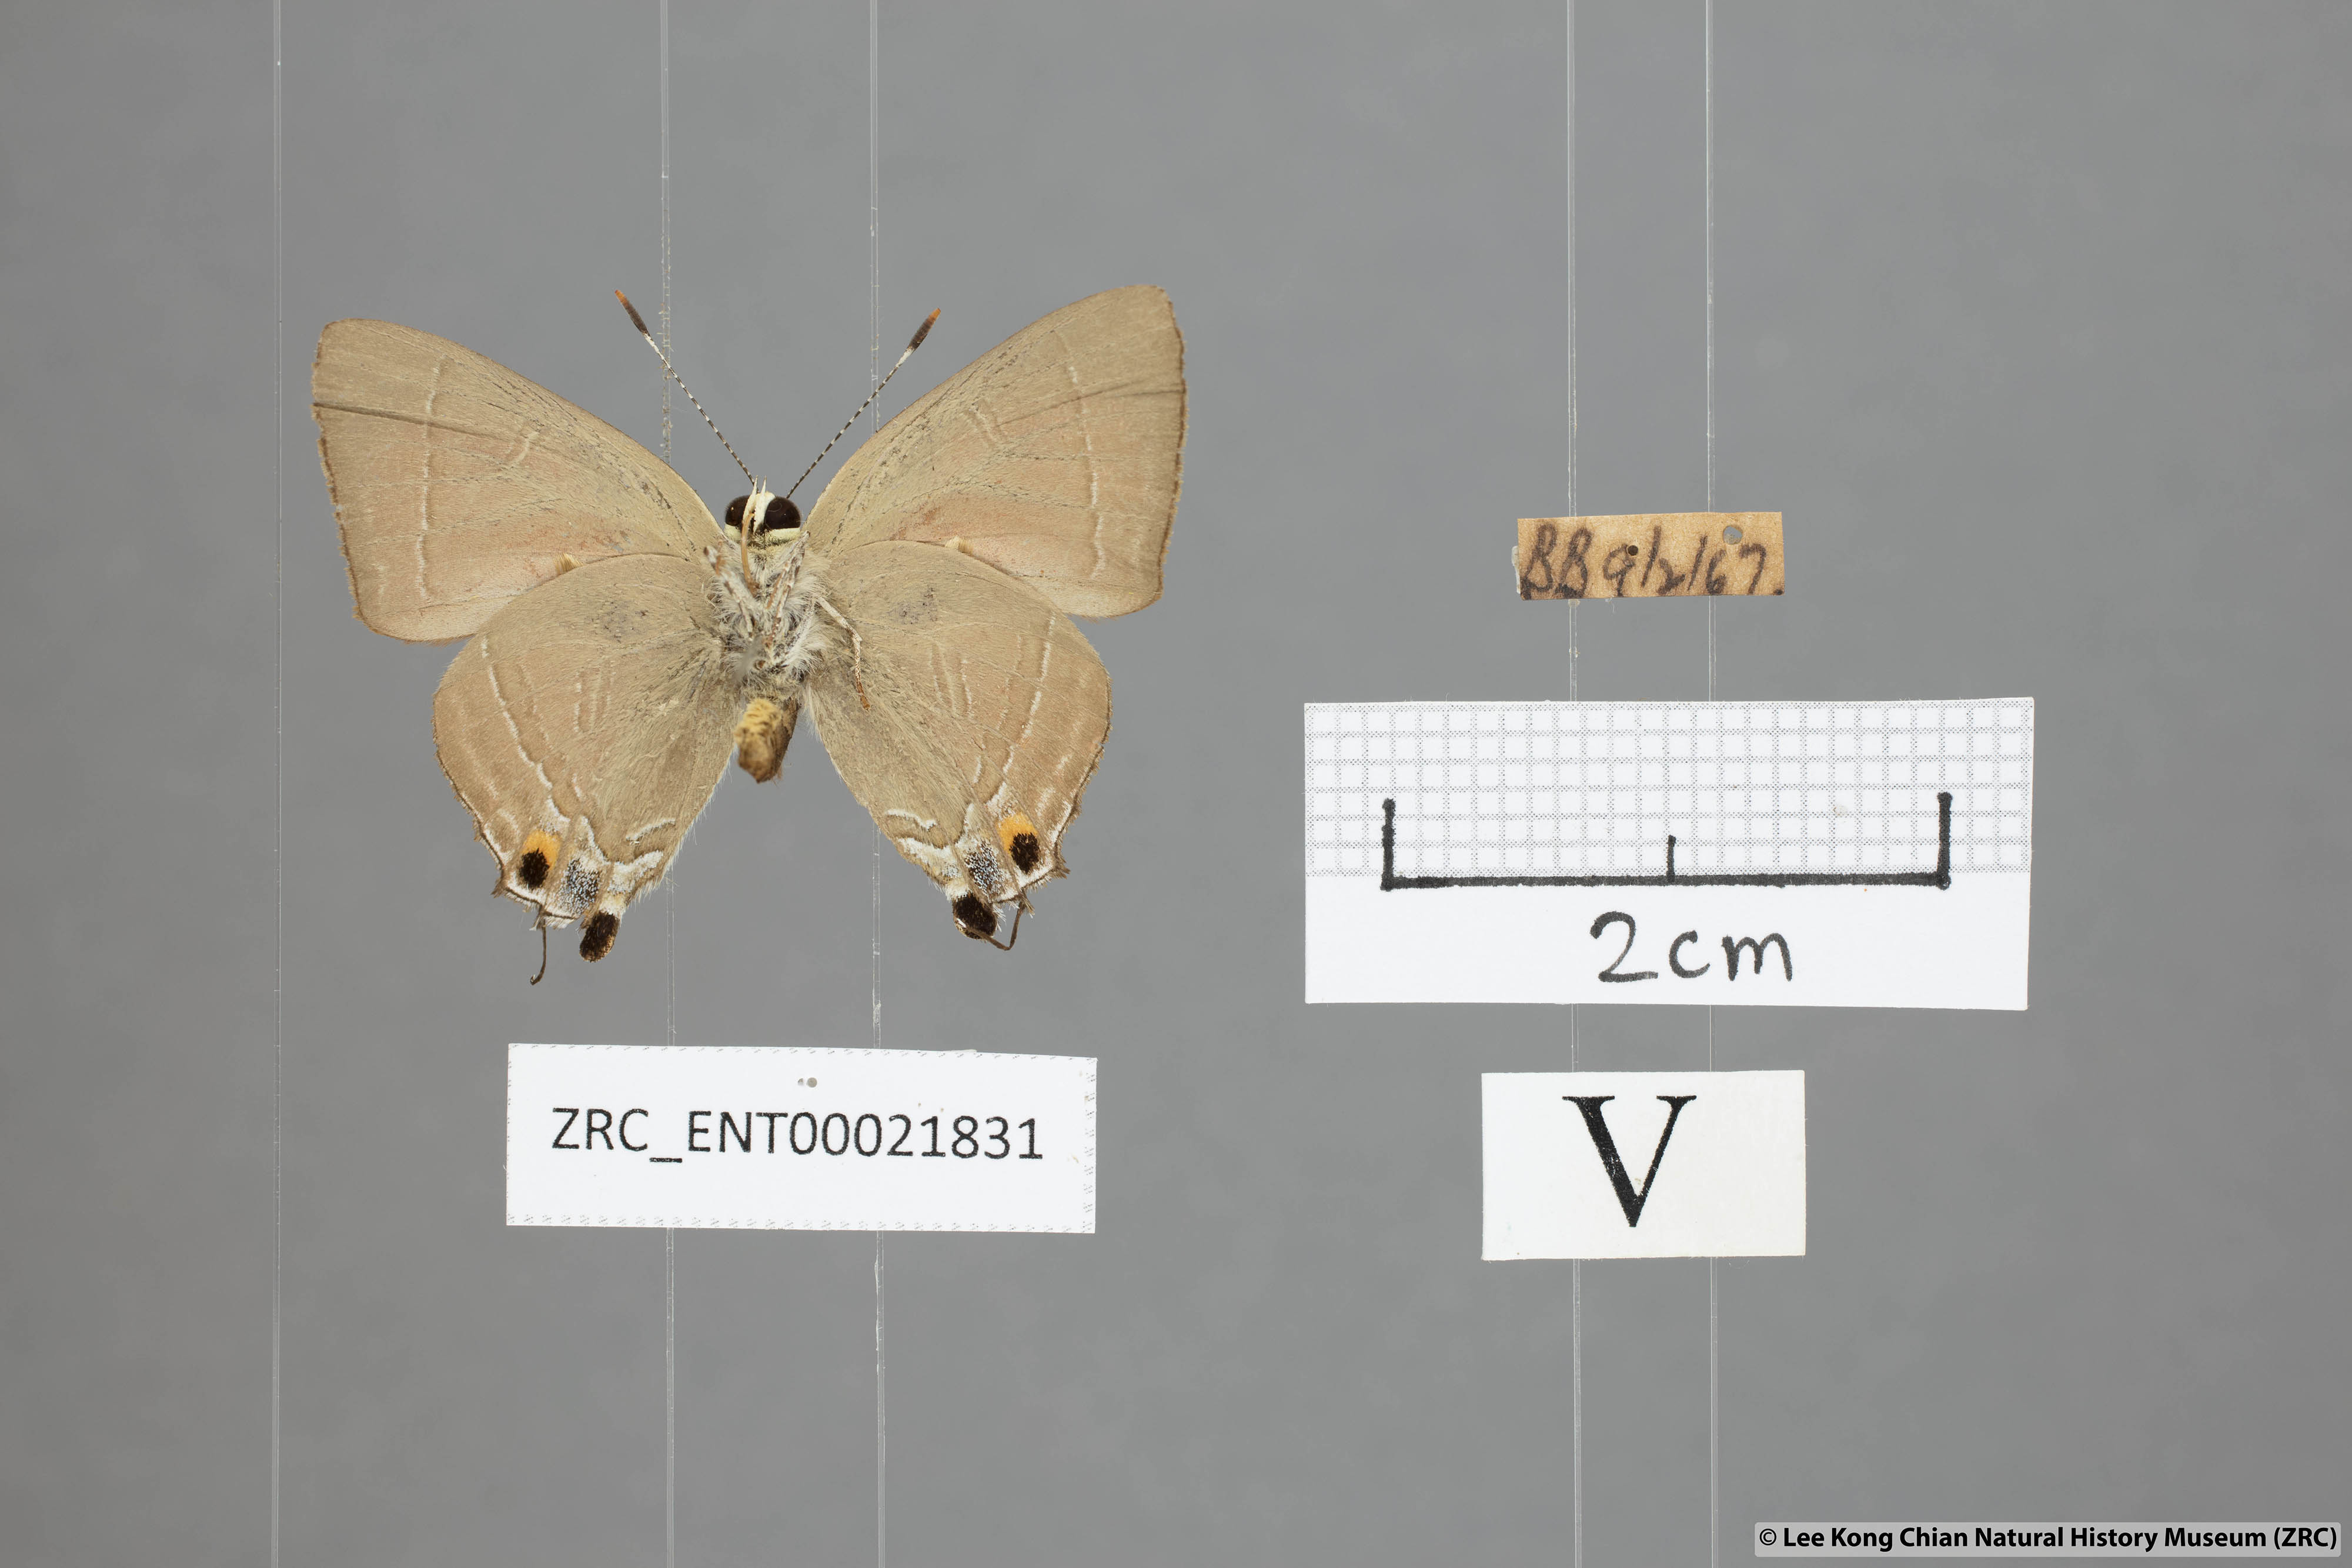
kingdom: Animalia
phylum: Arthropoda
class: Insecta
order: Lepidoptera
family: Lycaenidae
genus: Rapala
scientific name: Rapala iarbas
